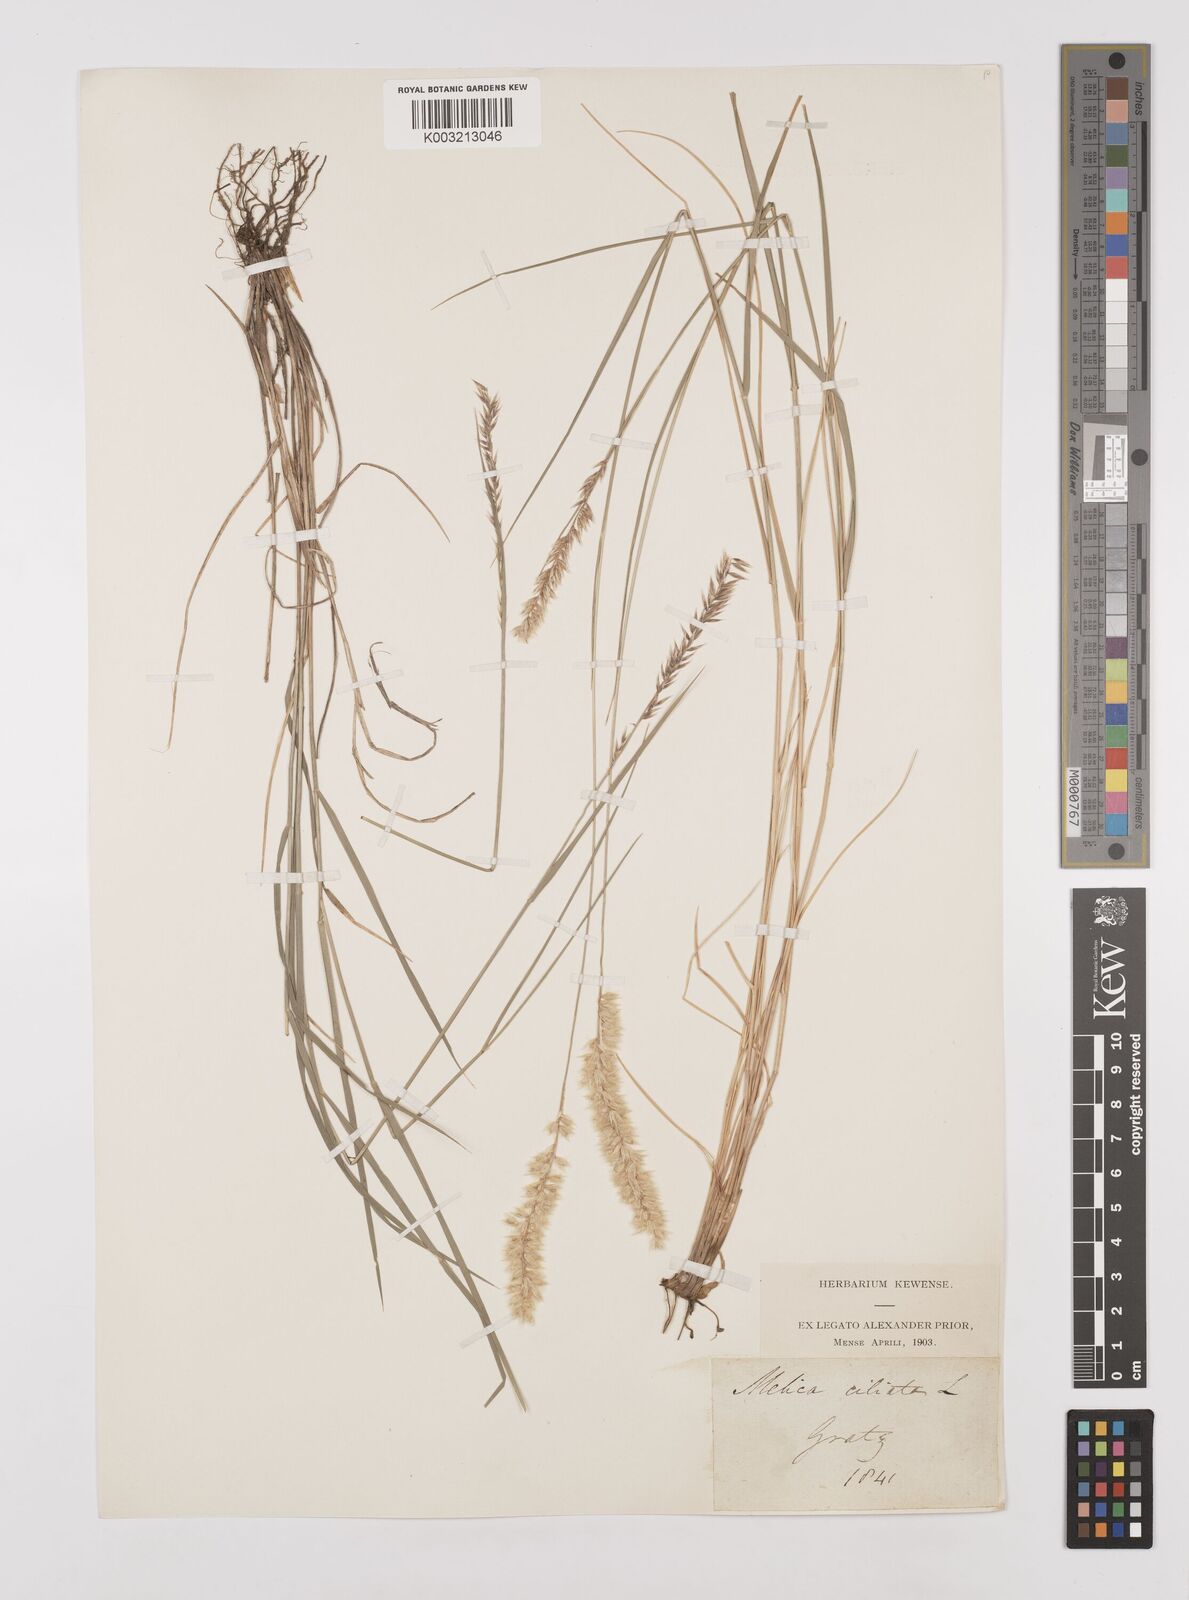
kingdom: Plantae
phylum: Tracheophyta
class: Liliopsida
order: Poales
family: Poaceae
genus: Melica
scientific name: Melica ciliata
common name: Hairy melicgrass
